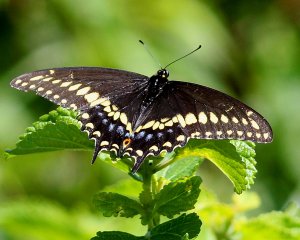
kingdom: Animalia
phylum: Arthropoda
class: Insecta
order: Lepidoptera
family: Papilionidae
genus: Papilio
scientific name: Papilio polyxenes
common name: Black Swallowtail
